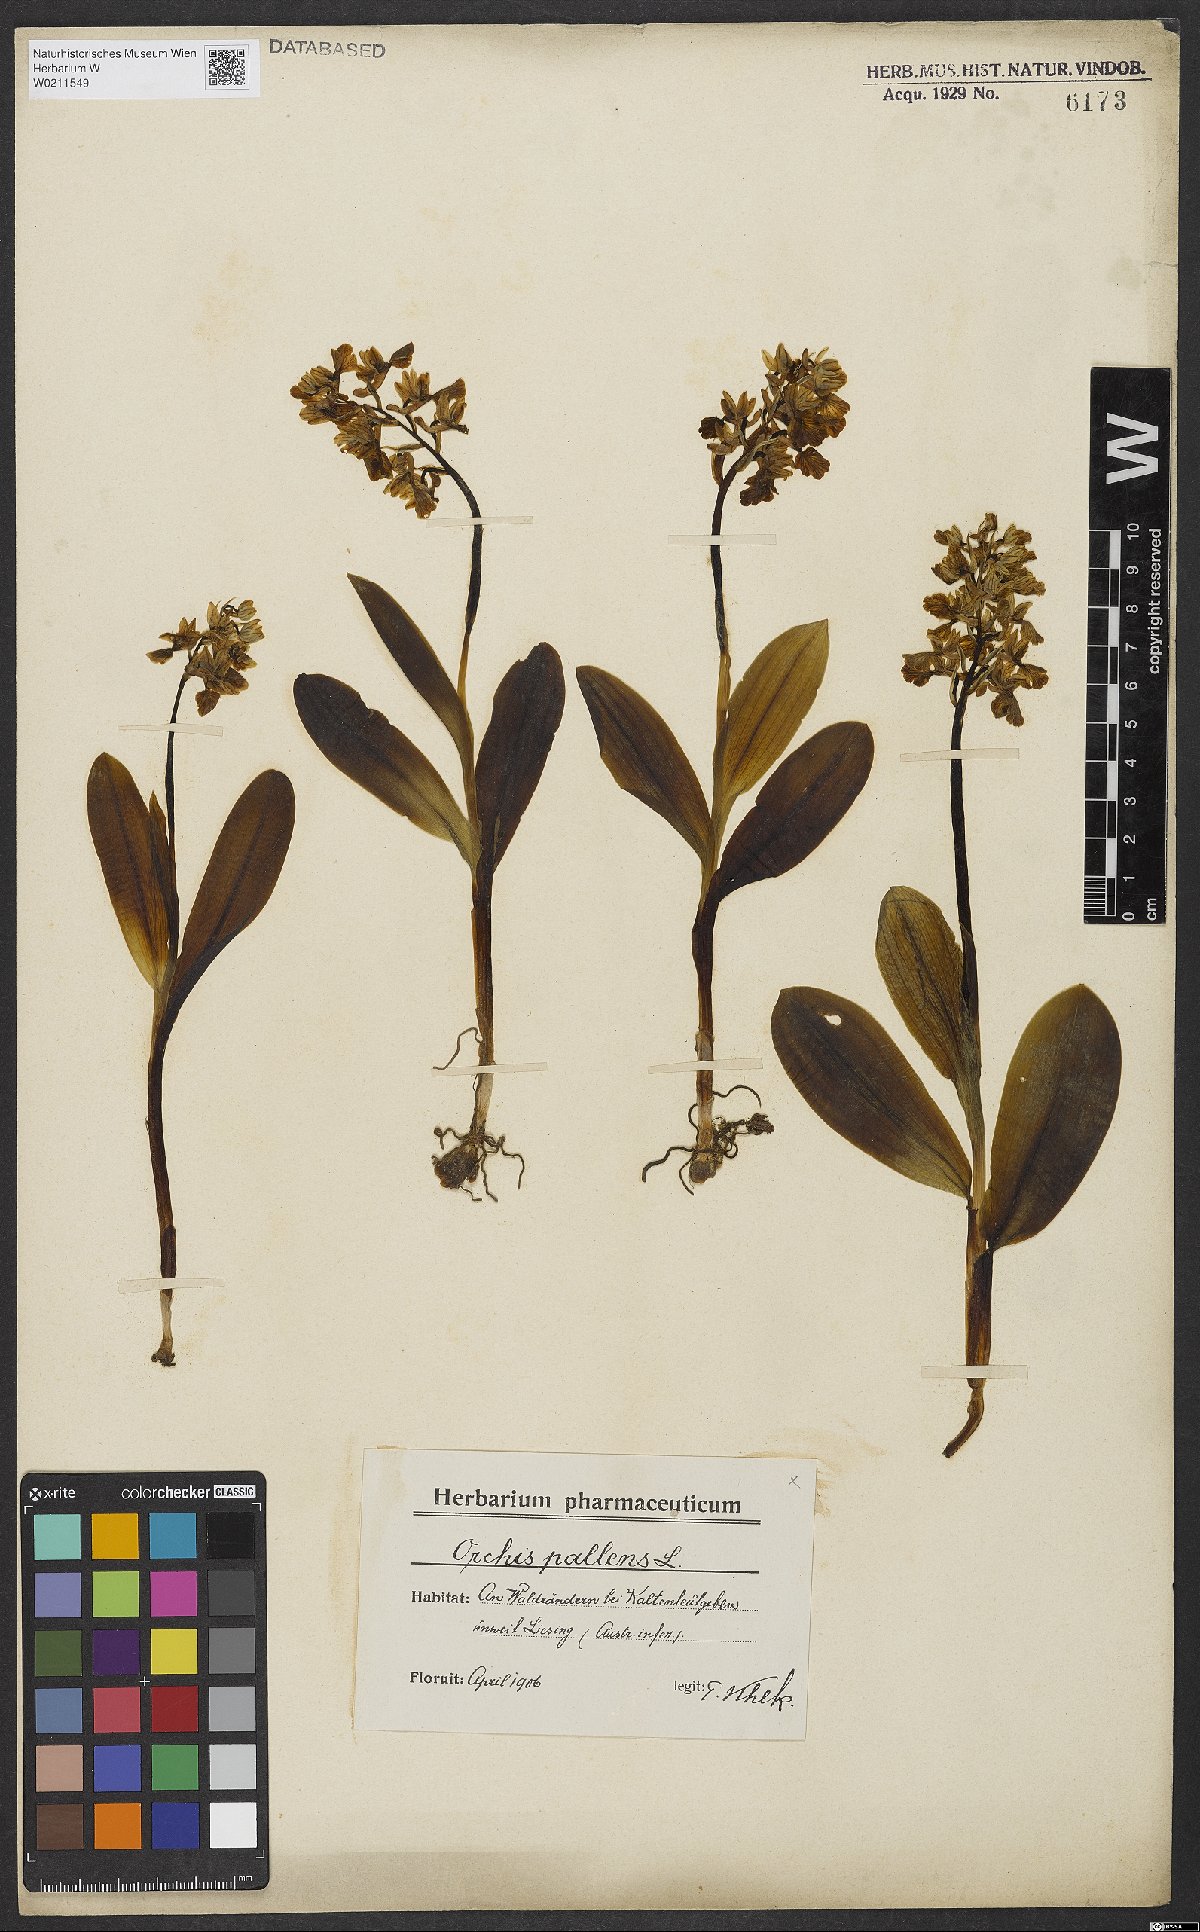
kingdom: Plantae
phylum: Tracheophyta
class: Liliopsida
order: Asparagales
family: Orchidaceae
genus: Orchis
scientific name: Orchis pallens
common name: Pale-flowered orchid
